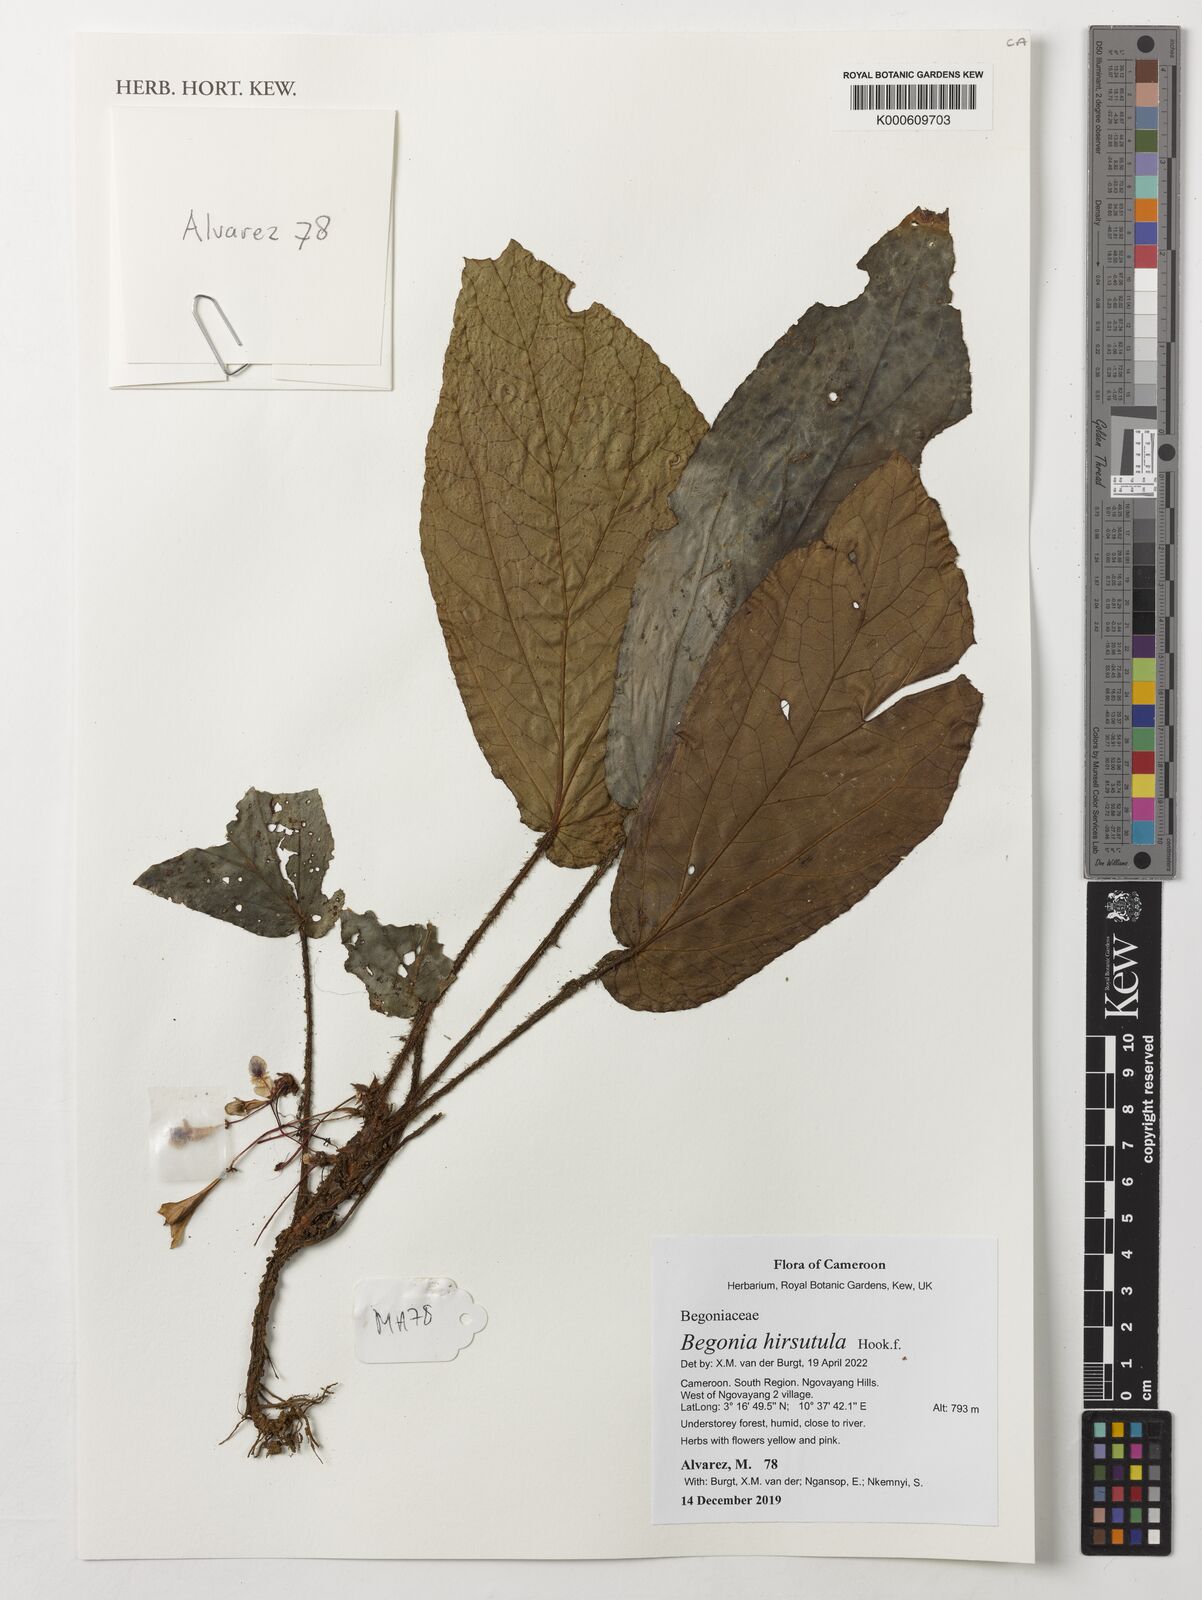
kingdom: Plantae
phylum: Tracheophyta
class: Magnoliopsida
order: Cucurbitales
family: Begoniaceae
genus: Begonia
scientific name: Begonia hirsutula
